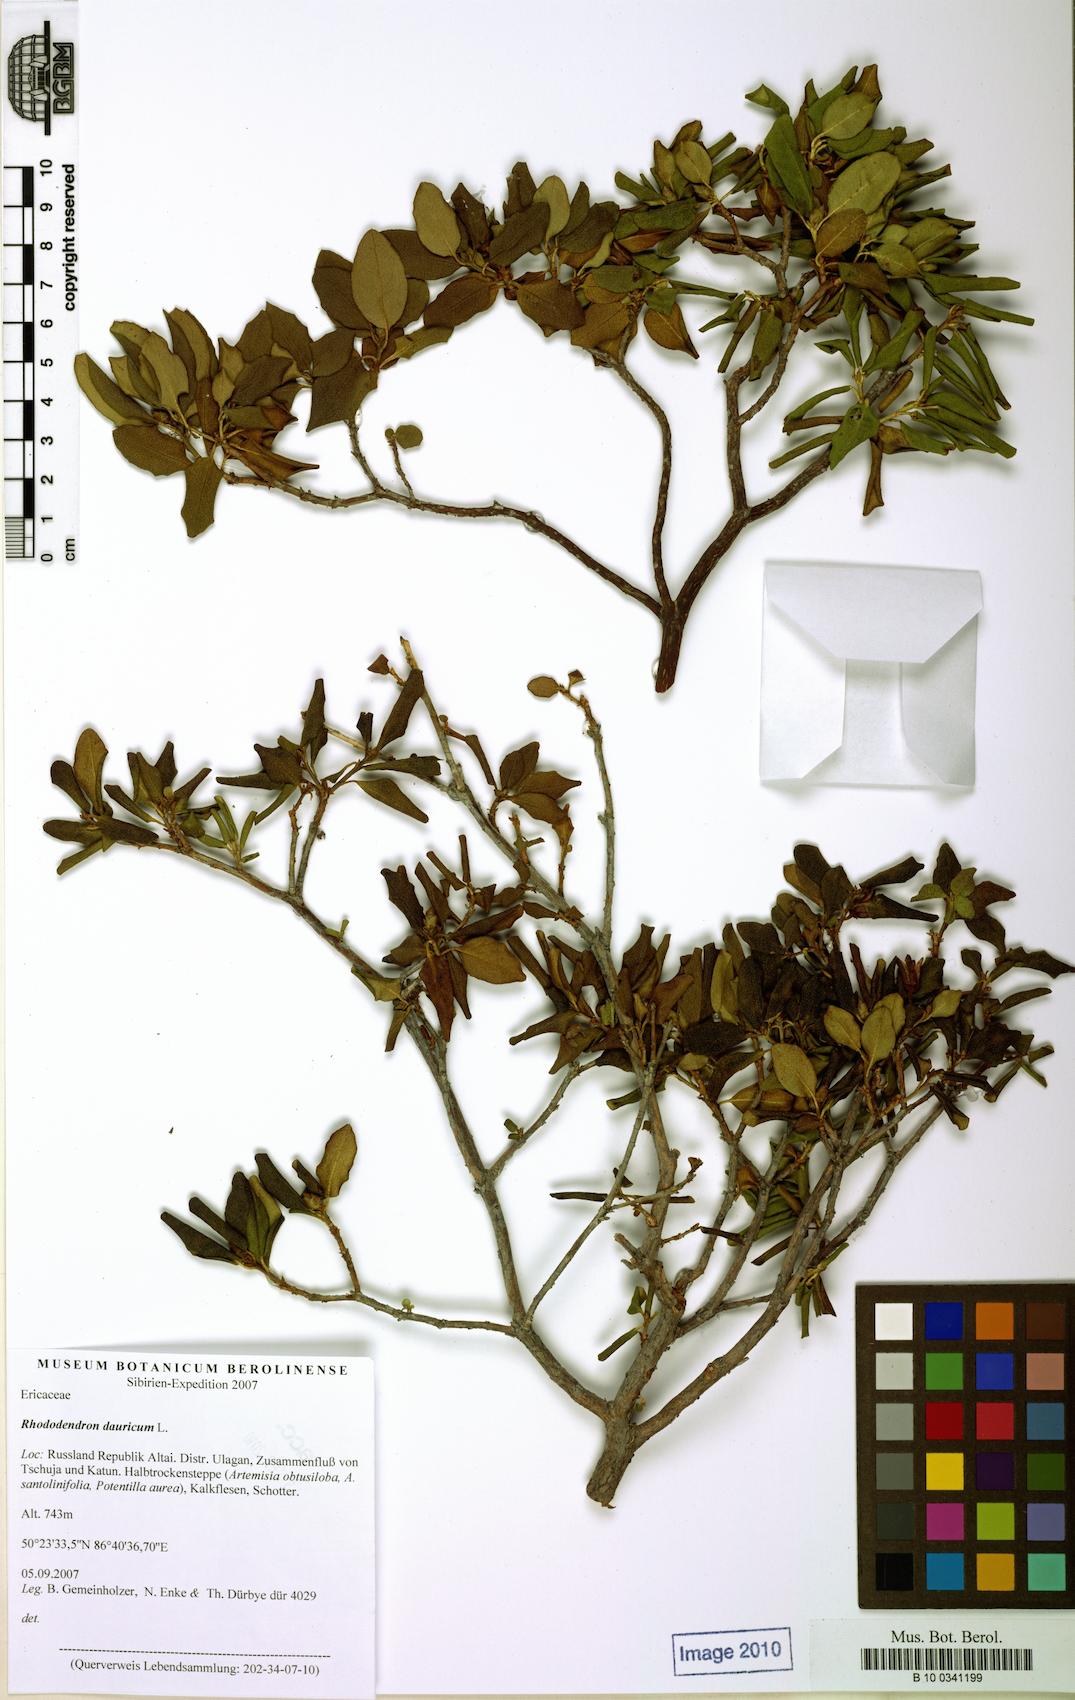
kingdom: Plantae
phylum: Tracheophyta
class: Magnoliopsida
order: Ericales
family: Ericaceae
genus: Rhododendron
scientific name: Rhododendron dauricum
